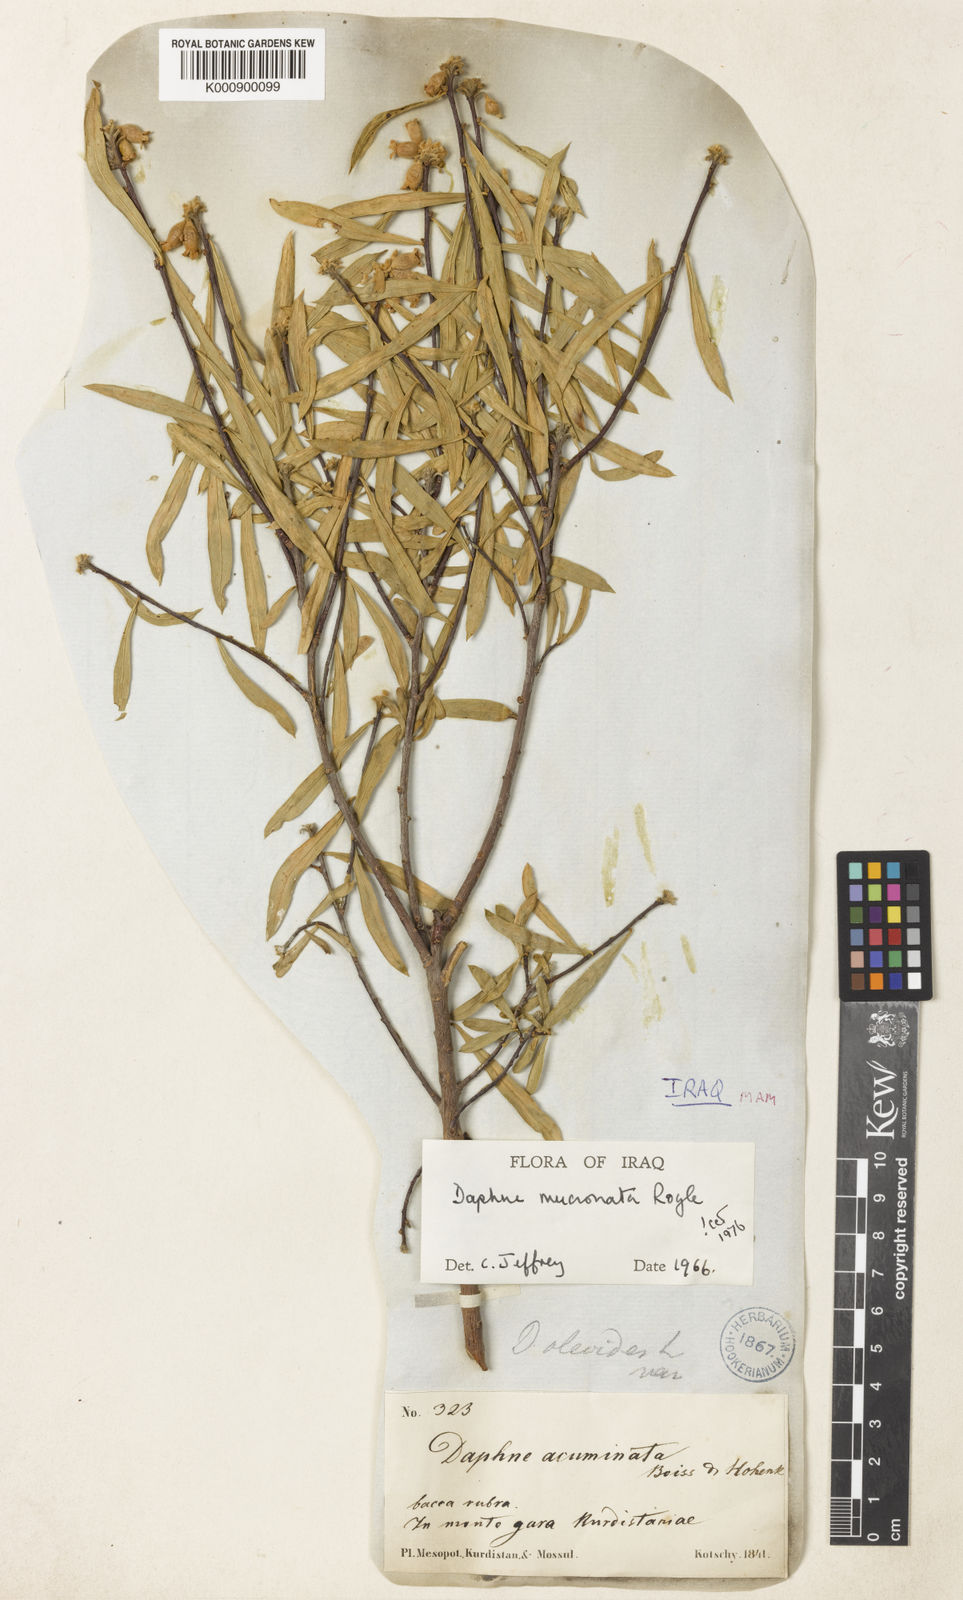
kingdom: Plantae
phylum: Tracheophyta
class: Magnoliopsida
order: Malvales
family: Thymelaeaceae
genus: Daphne
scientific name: Daphne
